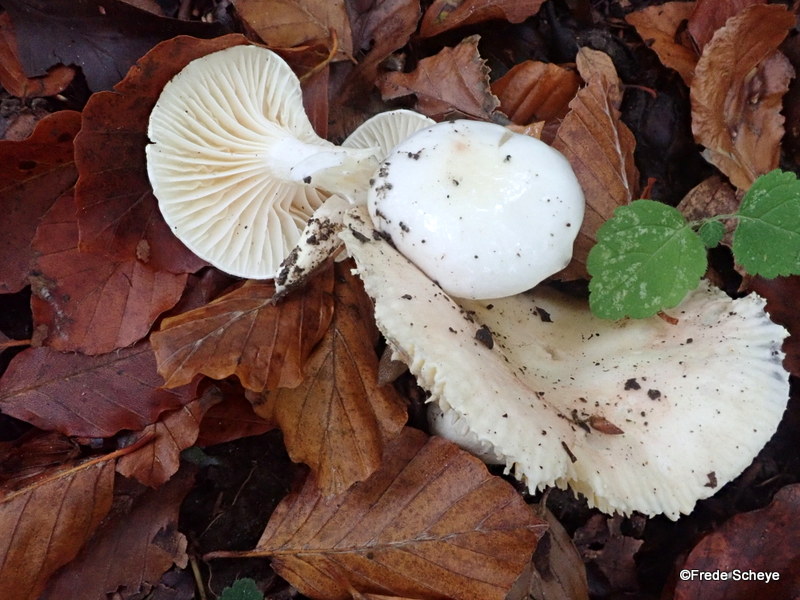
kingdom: Fungi
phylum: Basidiomycota
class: Agaricomycetes
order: Agaricales
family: Hygrophoraceae
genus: Hygrophorus
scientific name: Hygrophorus discoxanthus
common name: ildelugtende sneglehat
